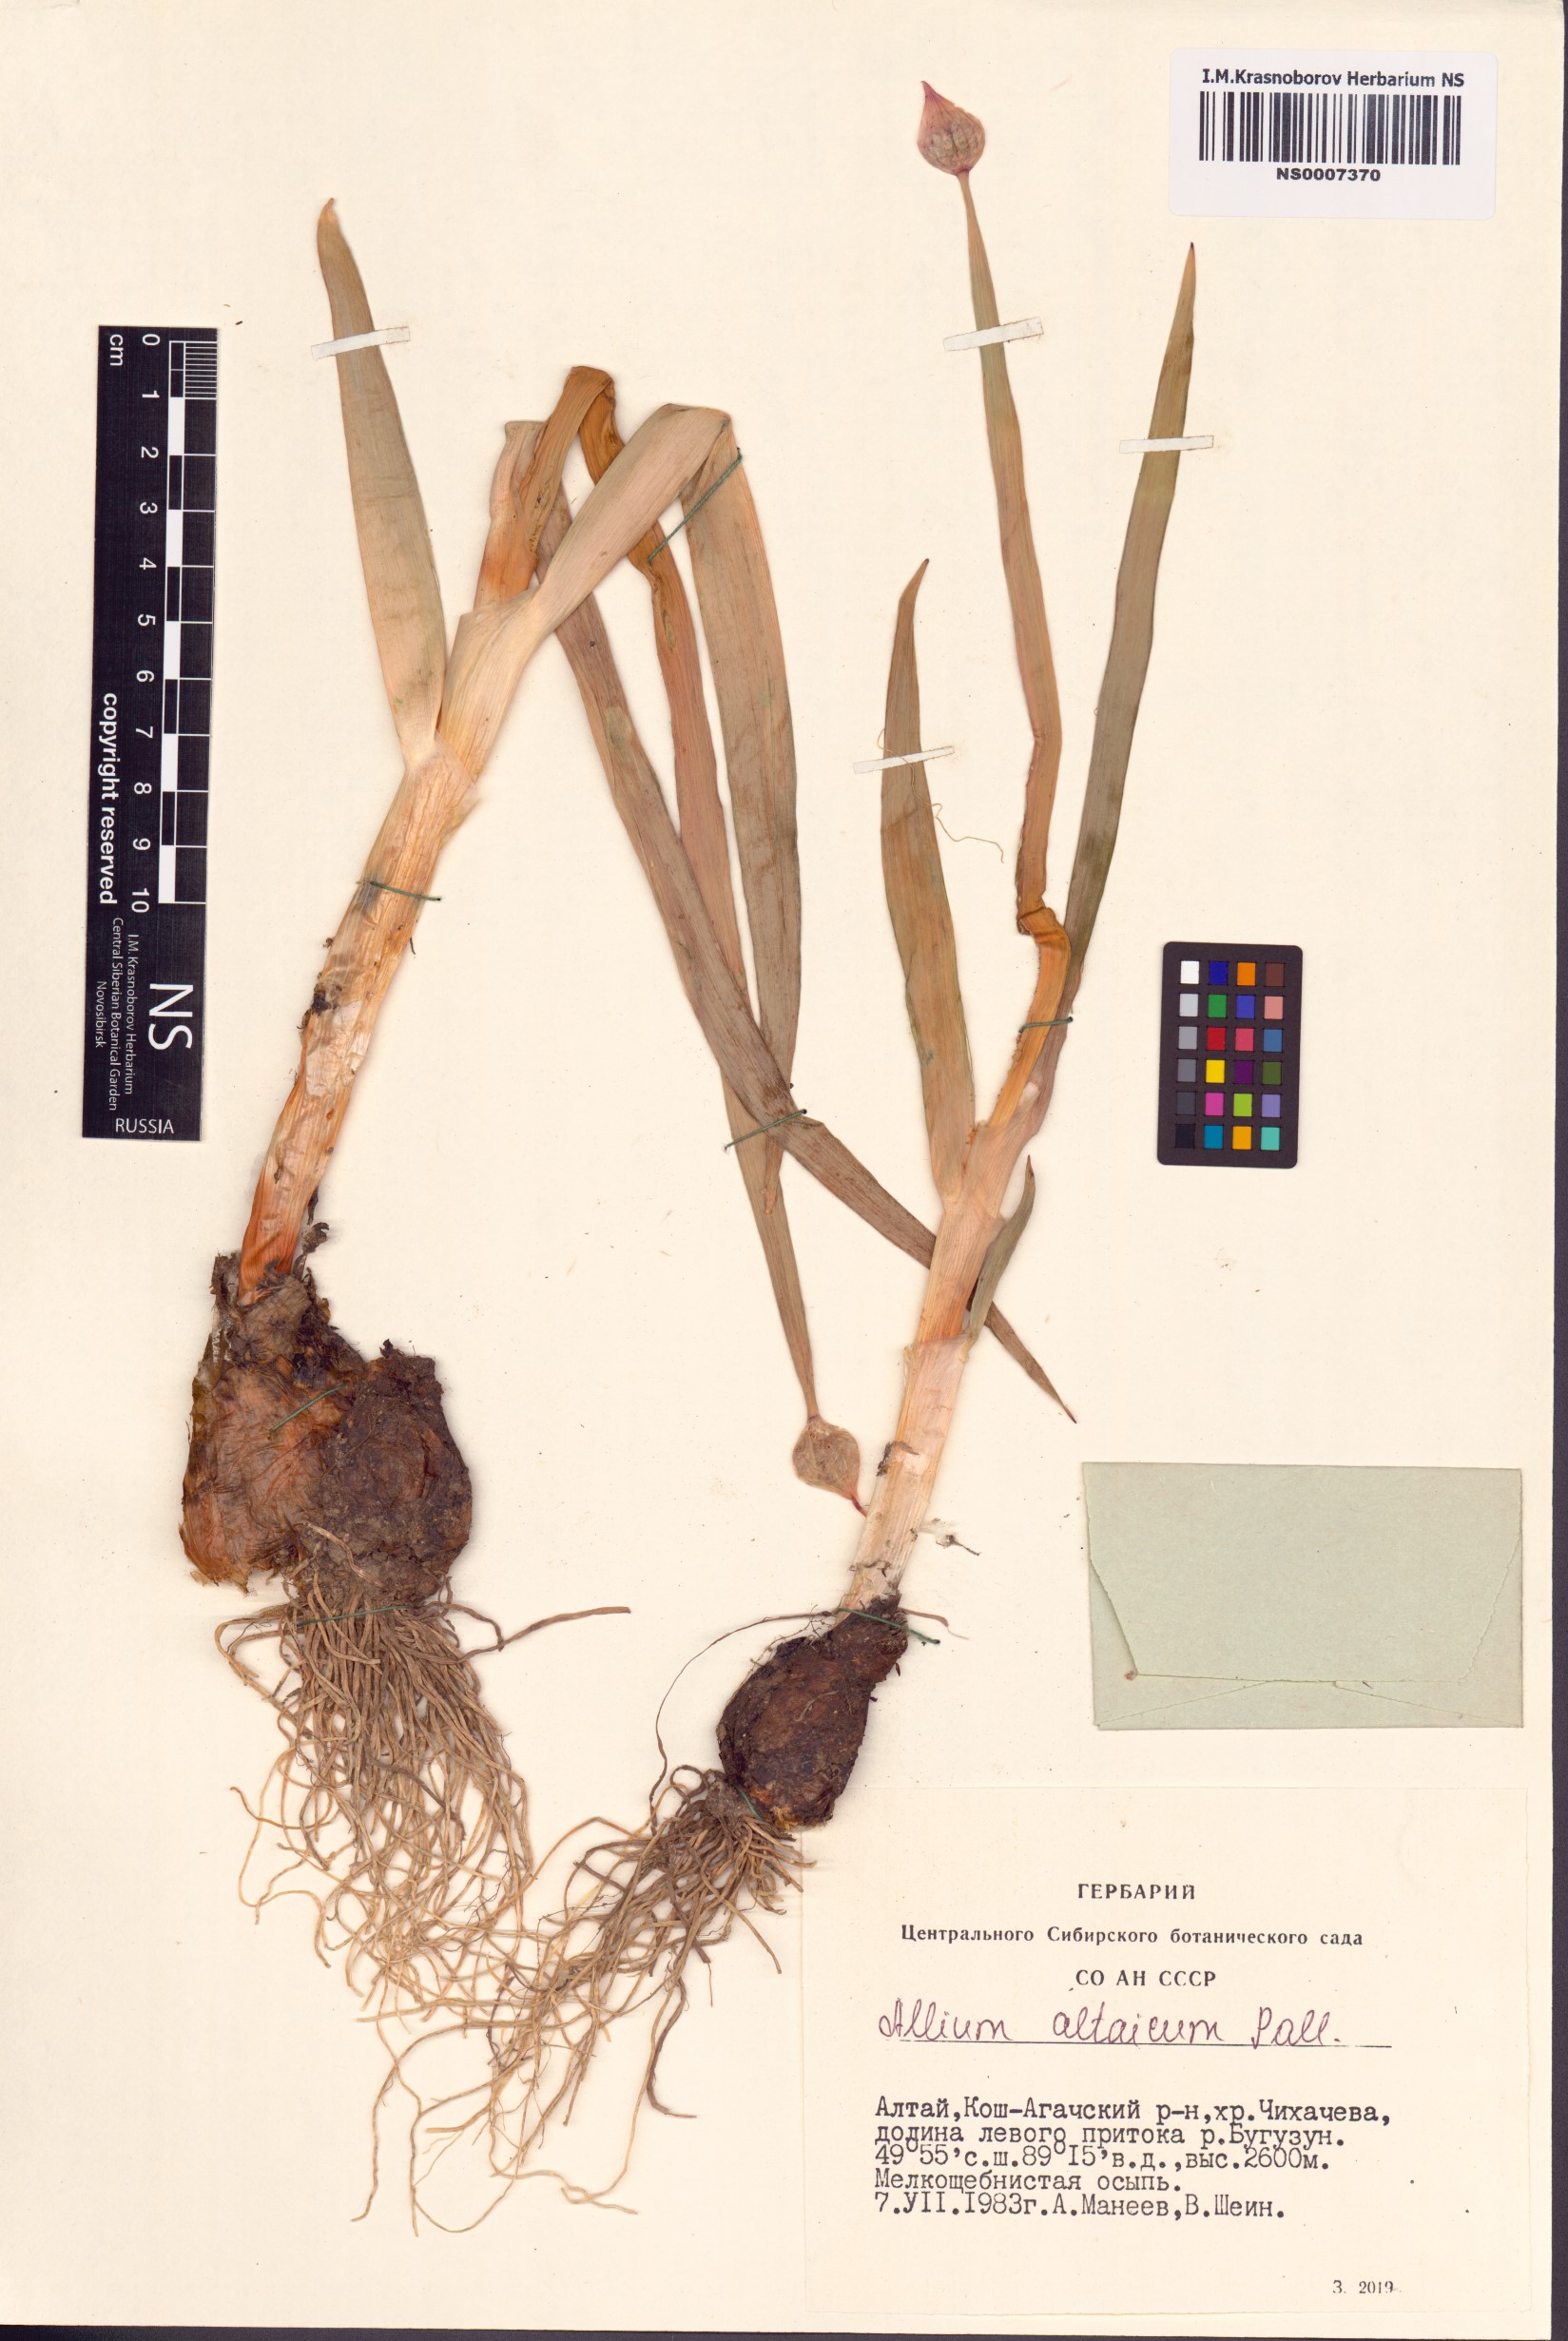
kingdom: Plantae
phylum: Tracheophyta
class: Liliopsida
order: Asparagales
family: Amaryllidaceae
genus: Allium
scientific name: Allium altaicum
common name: Altai onion
